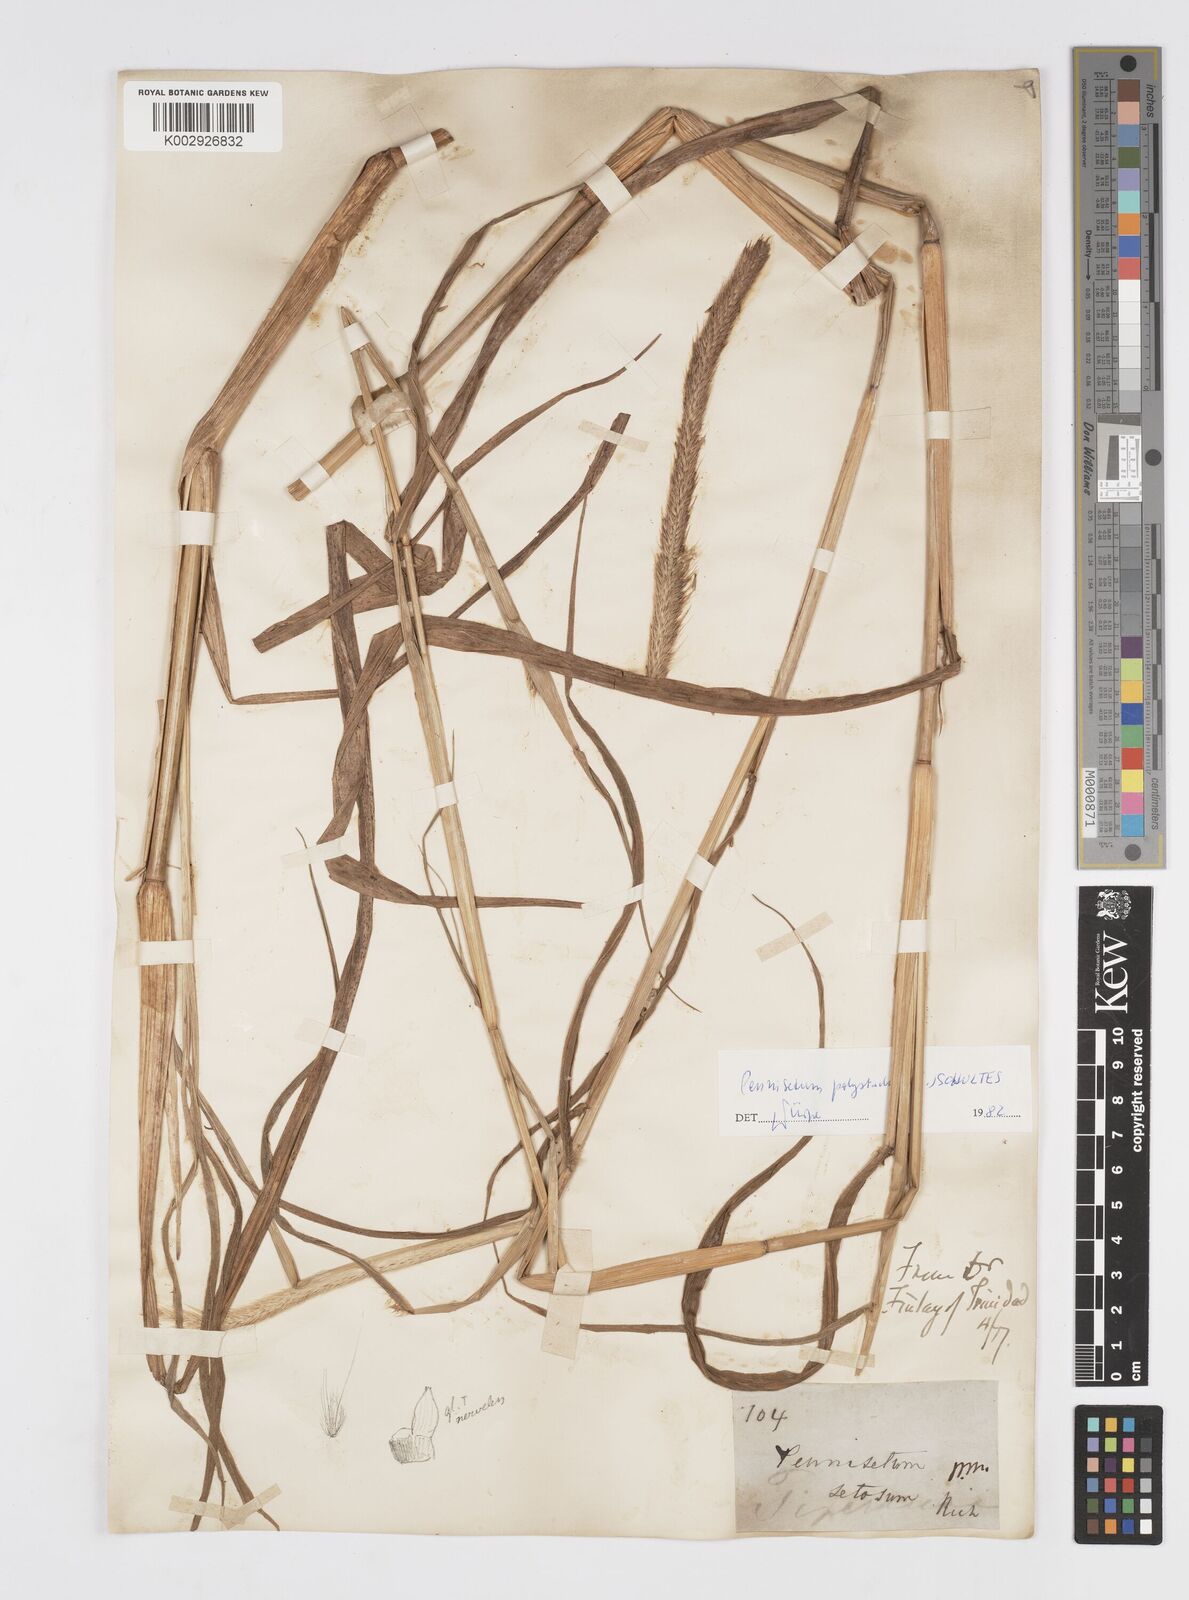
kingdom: Plantae
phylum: Tracheophyta
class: Liliopsida
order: Poales
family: Poaceae
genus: Cenchrus
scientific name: Cenchrus setosus
